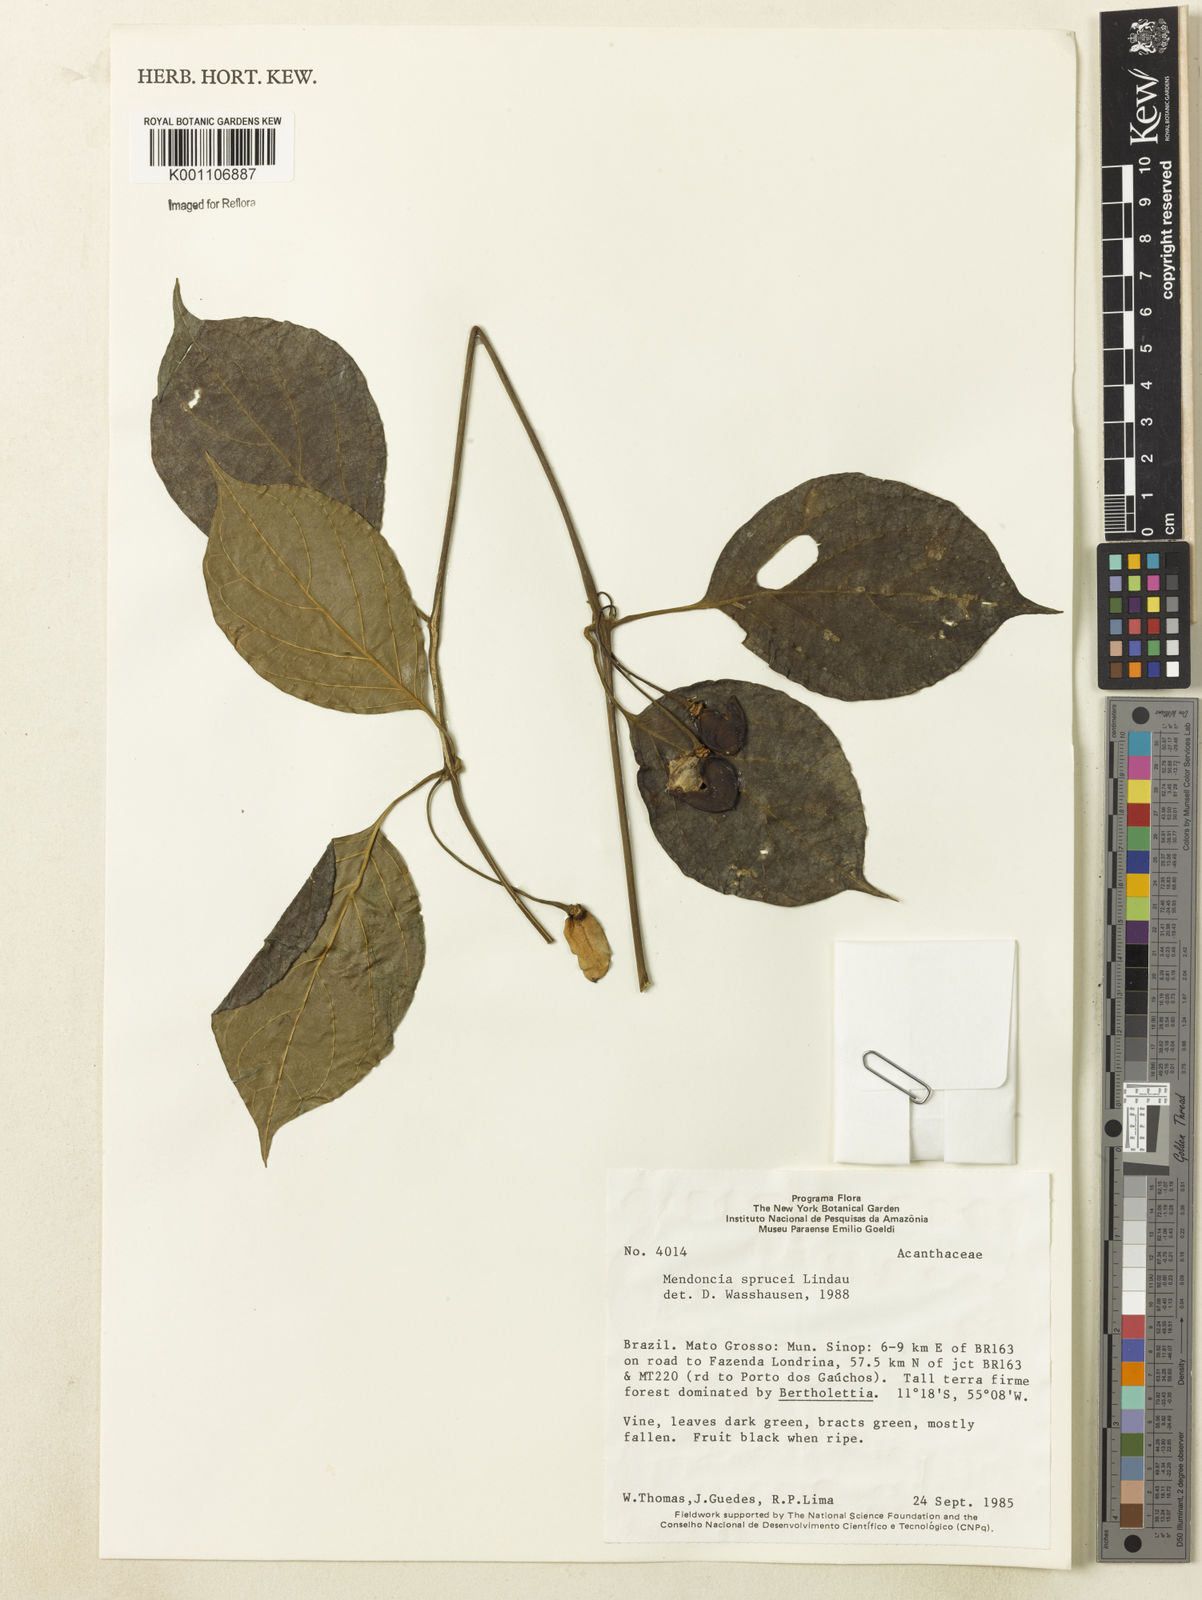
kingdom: Plantae
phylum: Tracheophyta
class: Magnoliopsida
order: Lamiales
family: Acanthaceae
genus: Mendoncia
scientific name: Mendoncia sprucei
